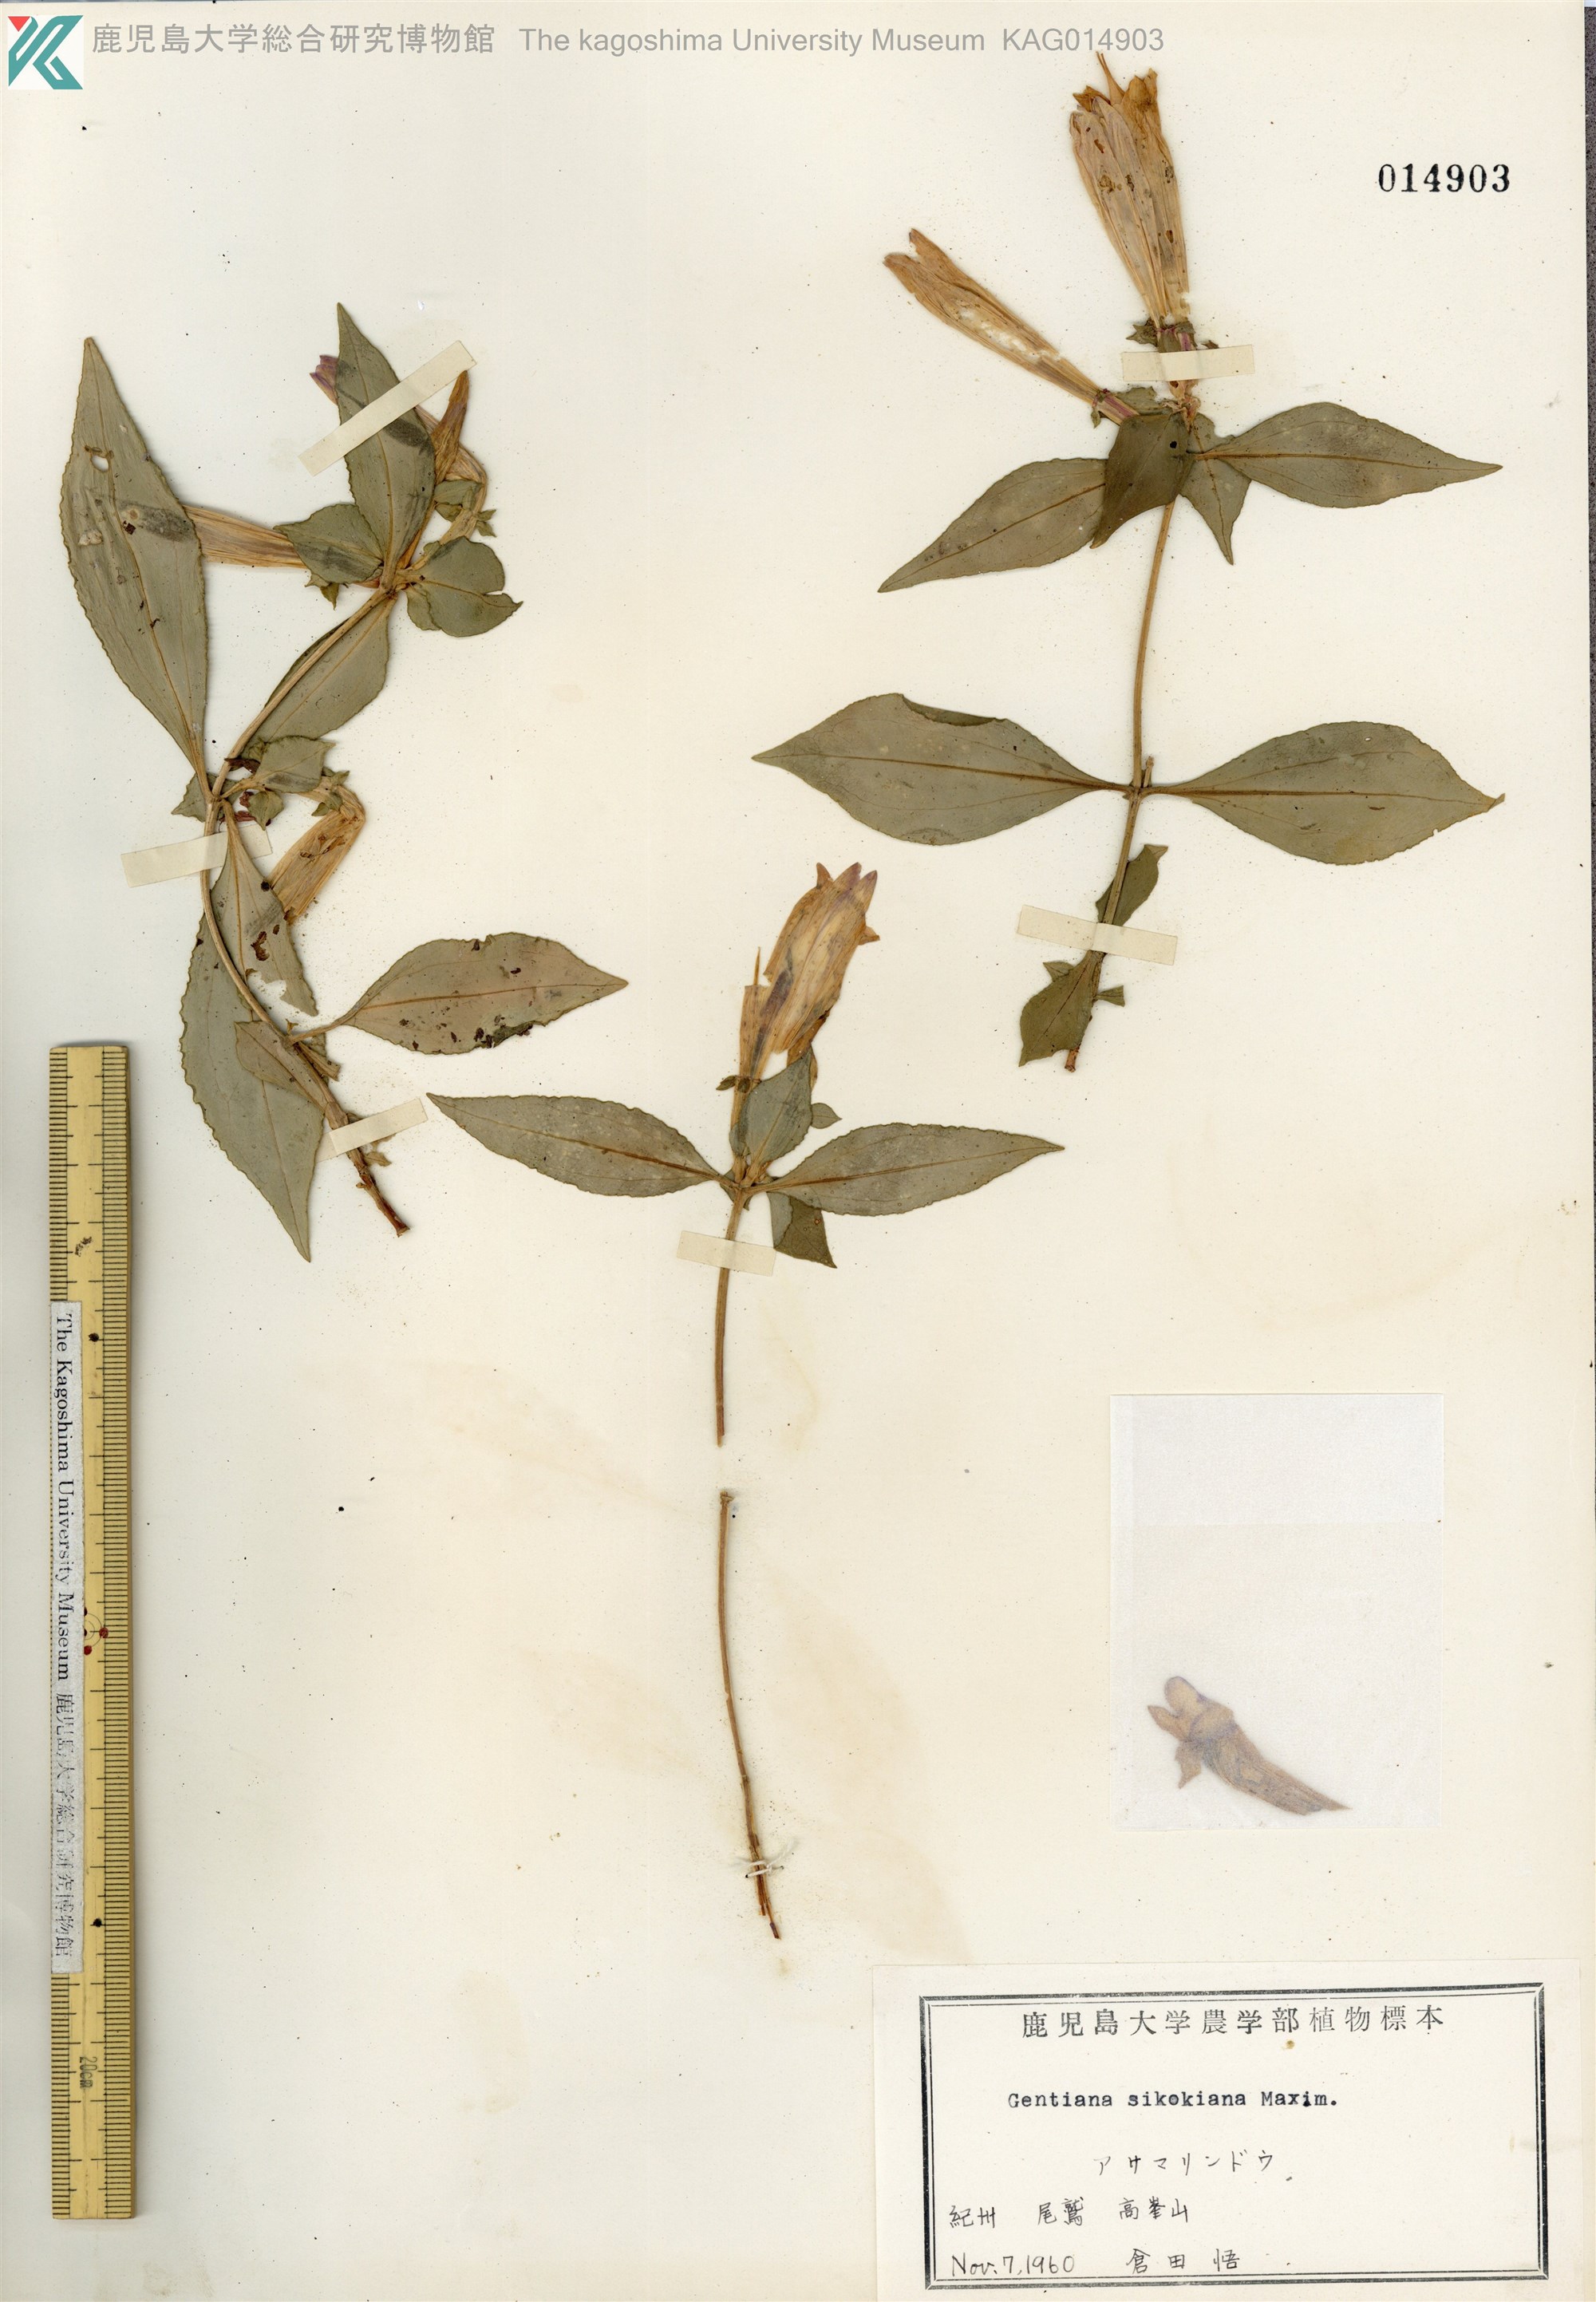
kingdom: Plantae
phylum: Tracheophyta
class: Magnoliopsida
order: Gentianales
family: Gentianaceae
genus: Gentiana
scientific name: Gentiana sikokiana
